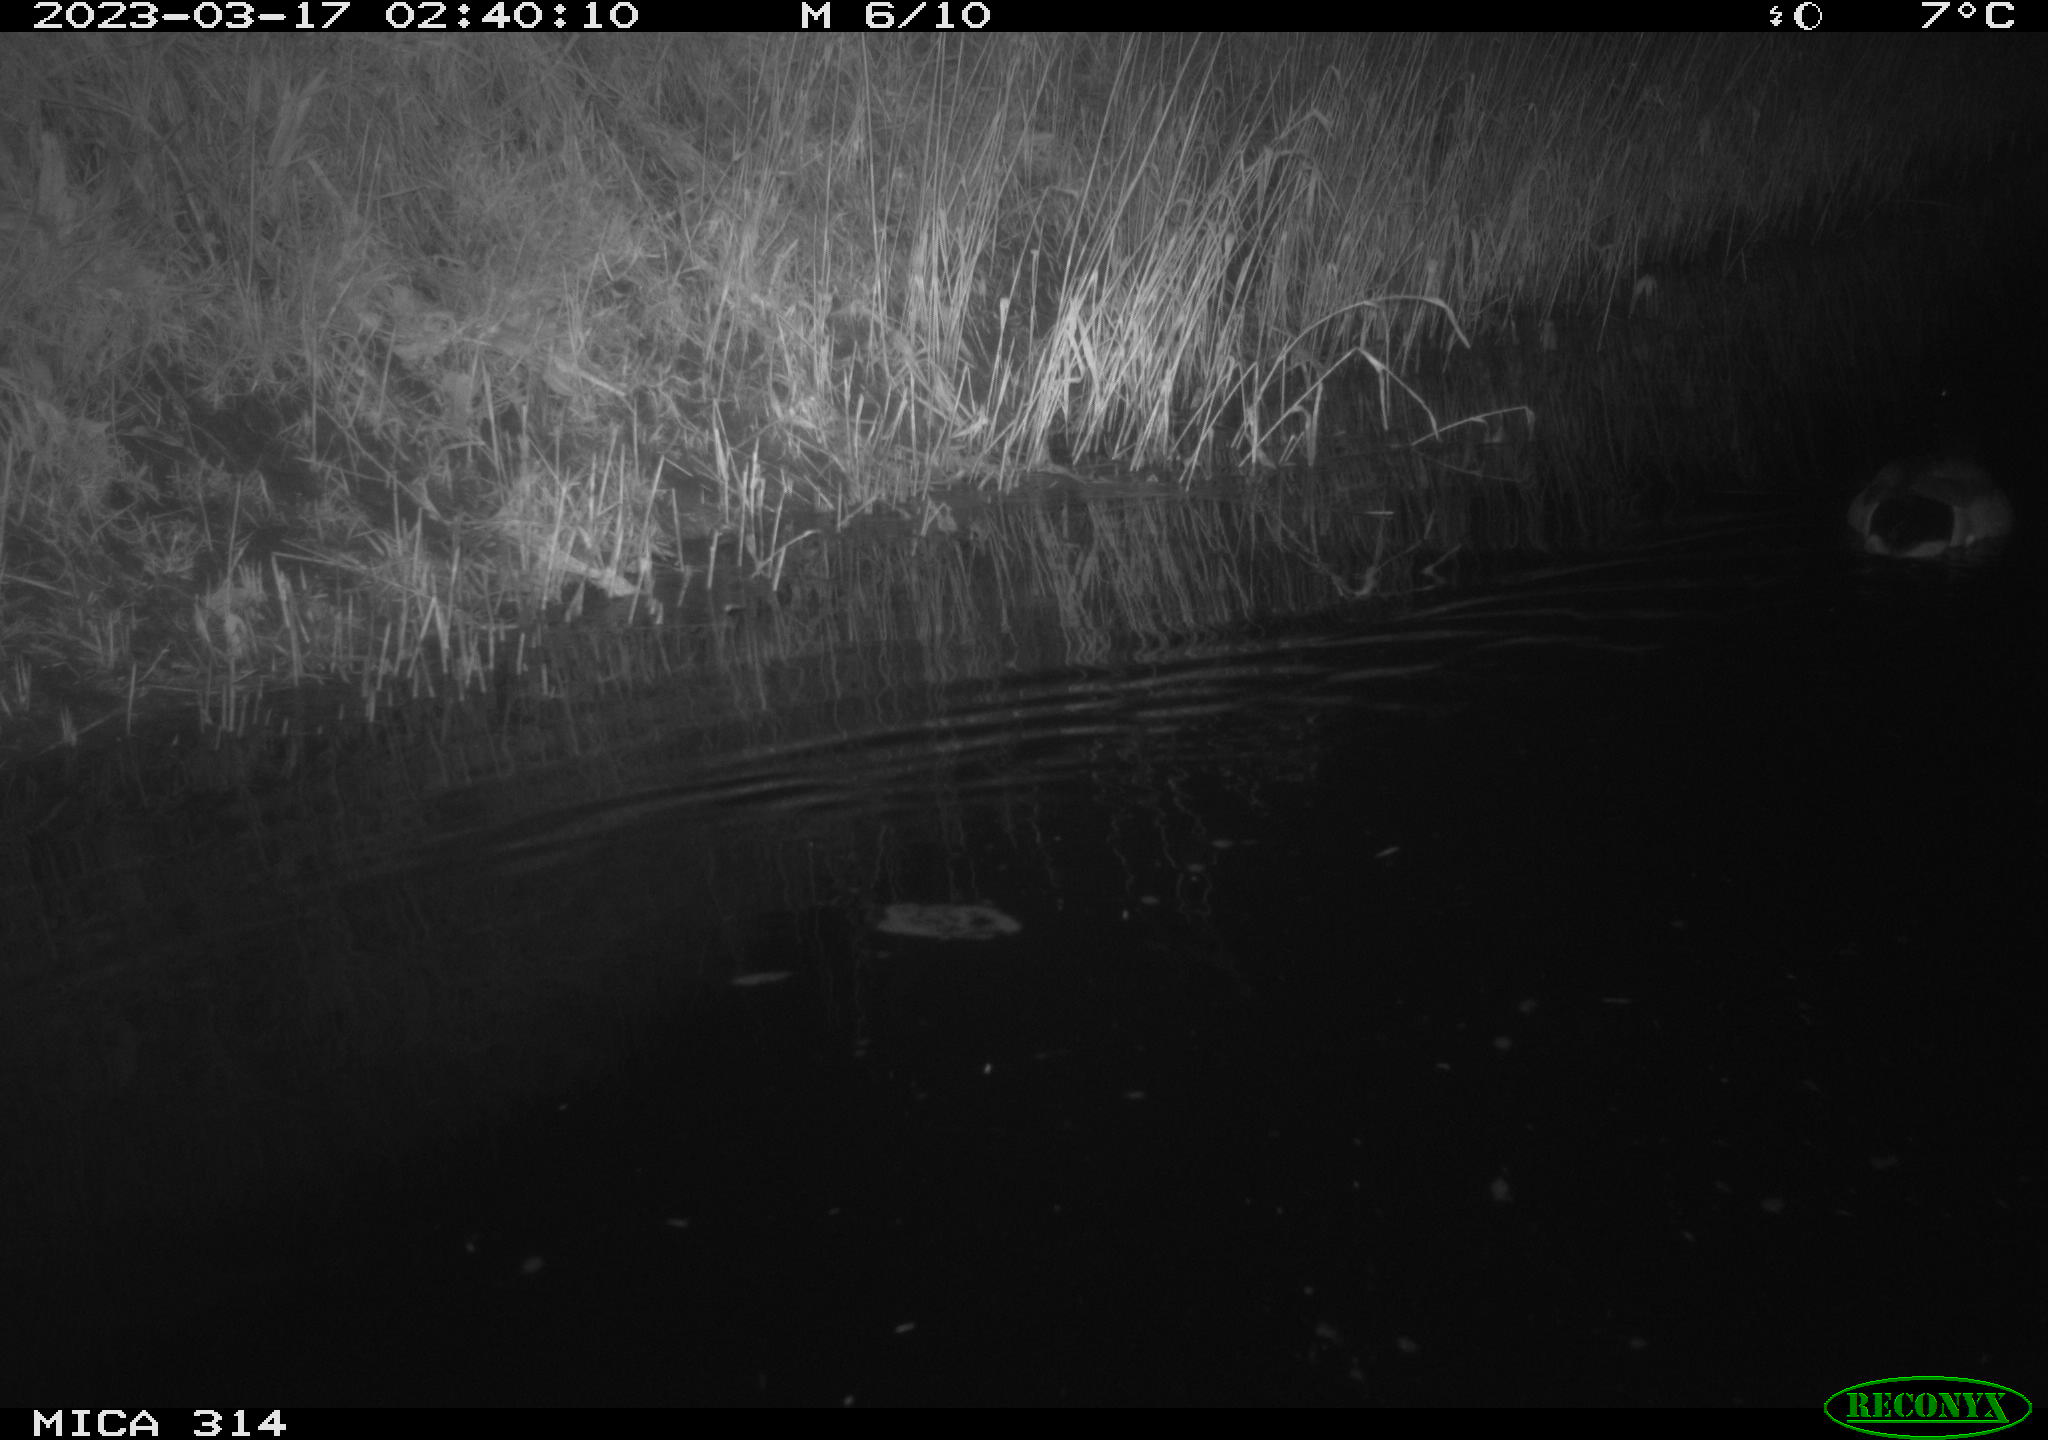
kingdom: Animalia
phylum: Chordata
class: Aves
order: Anseriformes
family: Anatidae
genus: Anas
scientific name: Anas
